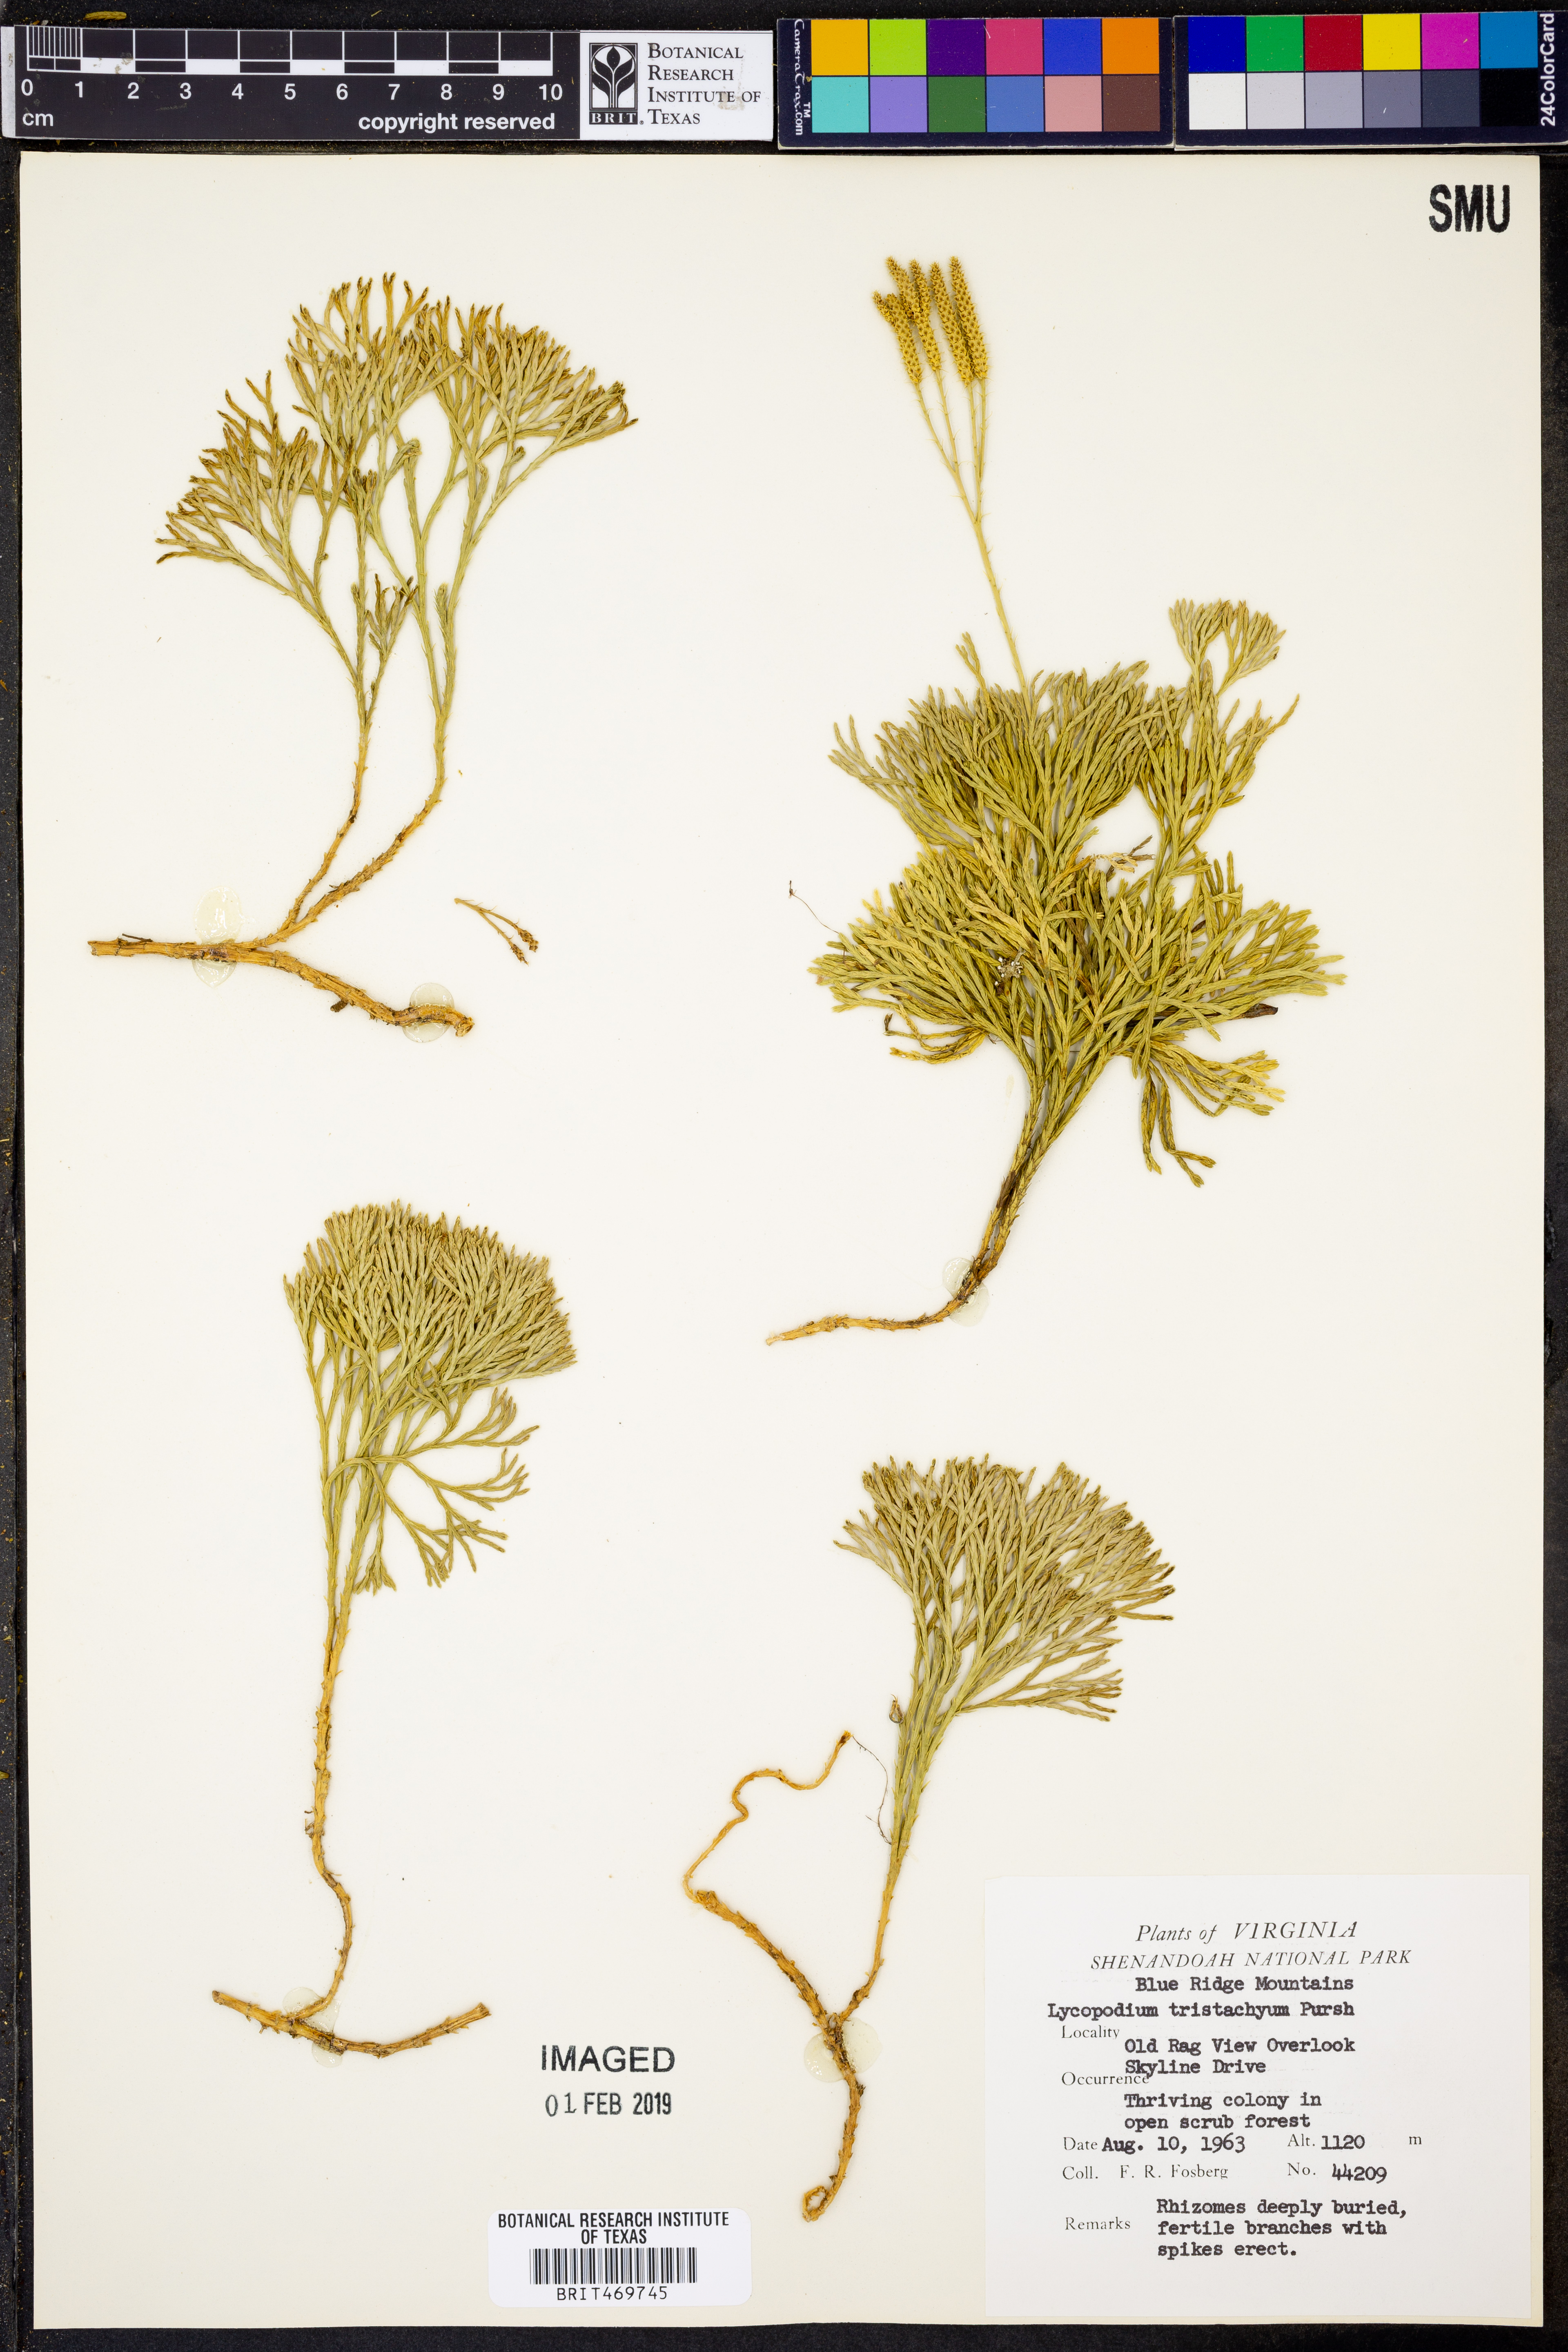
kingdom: Plantae
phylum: Tracheophyta
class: Lycopodiopsida
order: Lycopodiales
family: Lycopodiaceae
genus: Diphasiastrum
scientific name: Diphasiastrum tristachyum
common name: Blue ground-cedar
